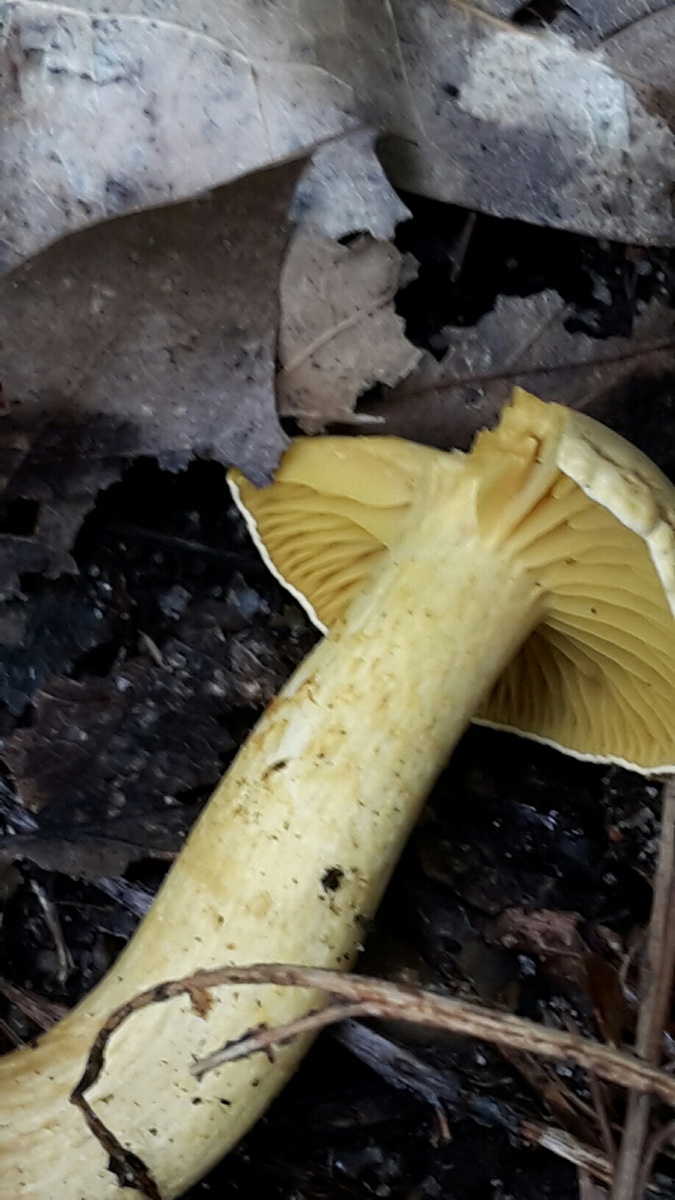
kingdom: Fungi
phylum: Basidiomycota
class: Agaricomycetes
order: Agaricales
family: Tricholomataceae
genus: Tricholoma
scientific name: Tricholoma sulphureum
